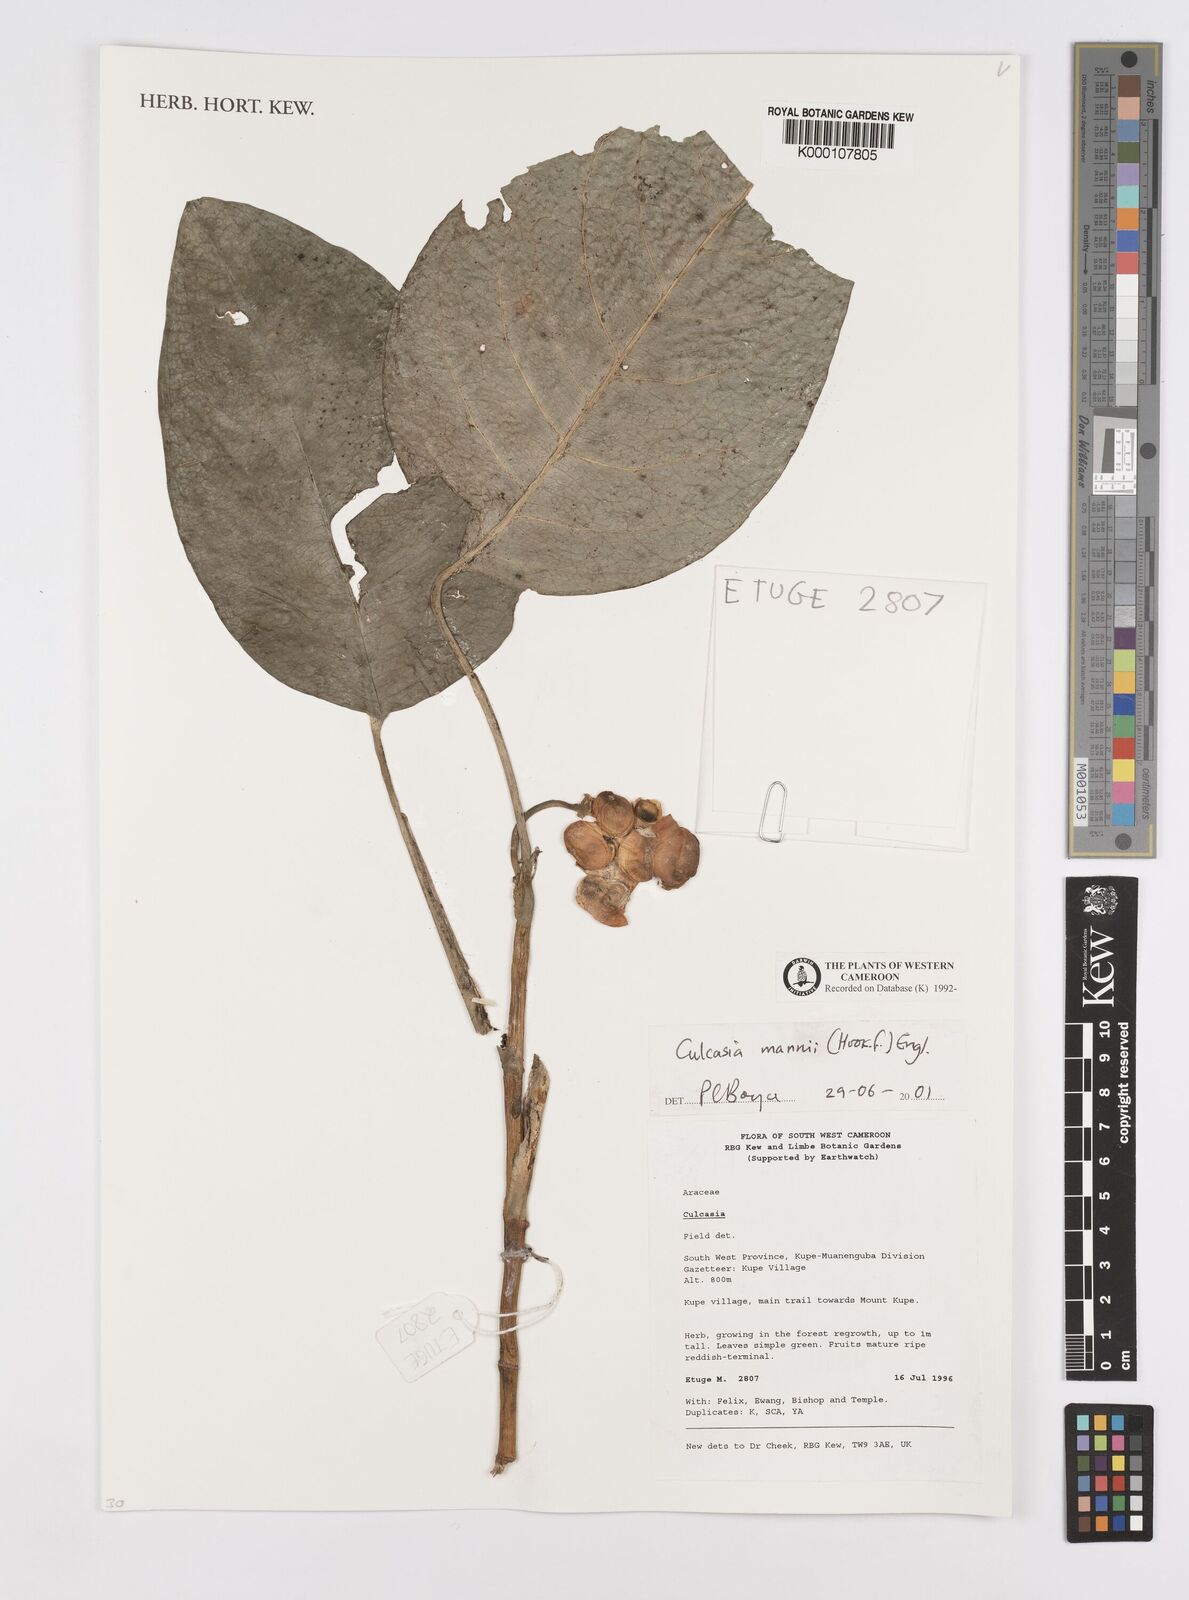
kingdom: Plantae
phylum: Tracheophyta
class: Liliopsida
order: Alismatales
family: Araceae
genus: Culcasia
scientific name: Culcasia mannii
